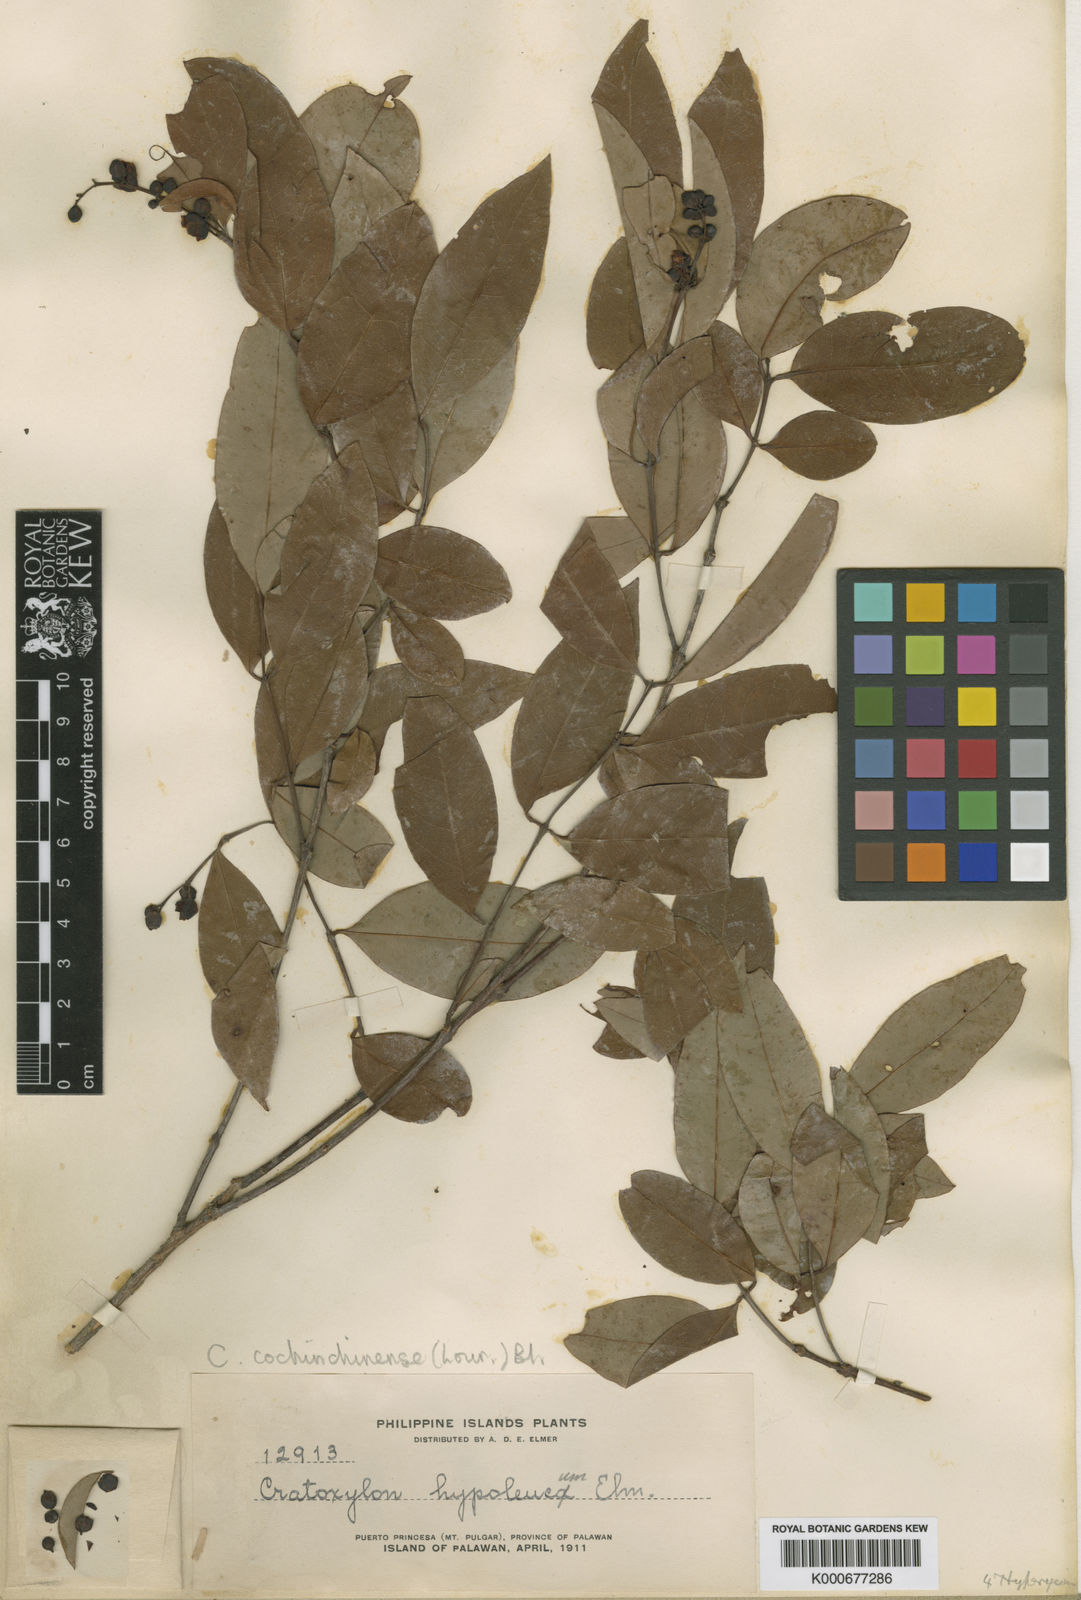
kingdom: Plantae
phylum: Tracheophyta
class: Magnoliopsida
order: Malpighiales
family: Hypericaceae
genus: Cratoxylum
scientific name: Cratoxylum cochinchinense
